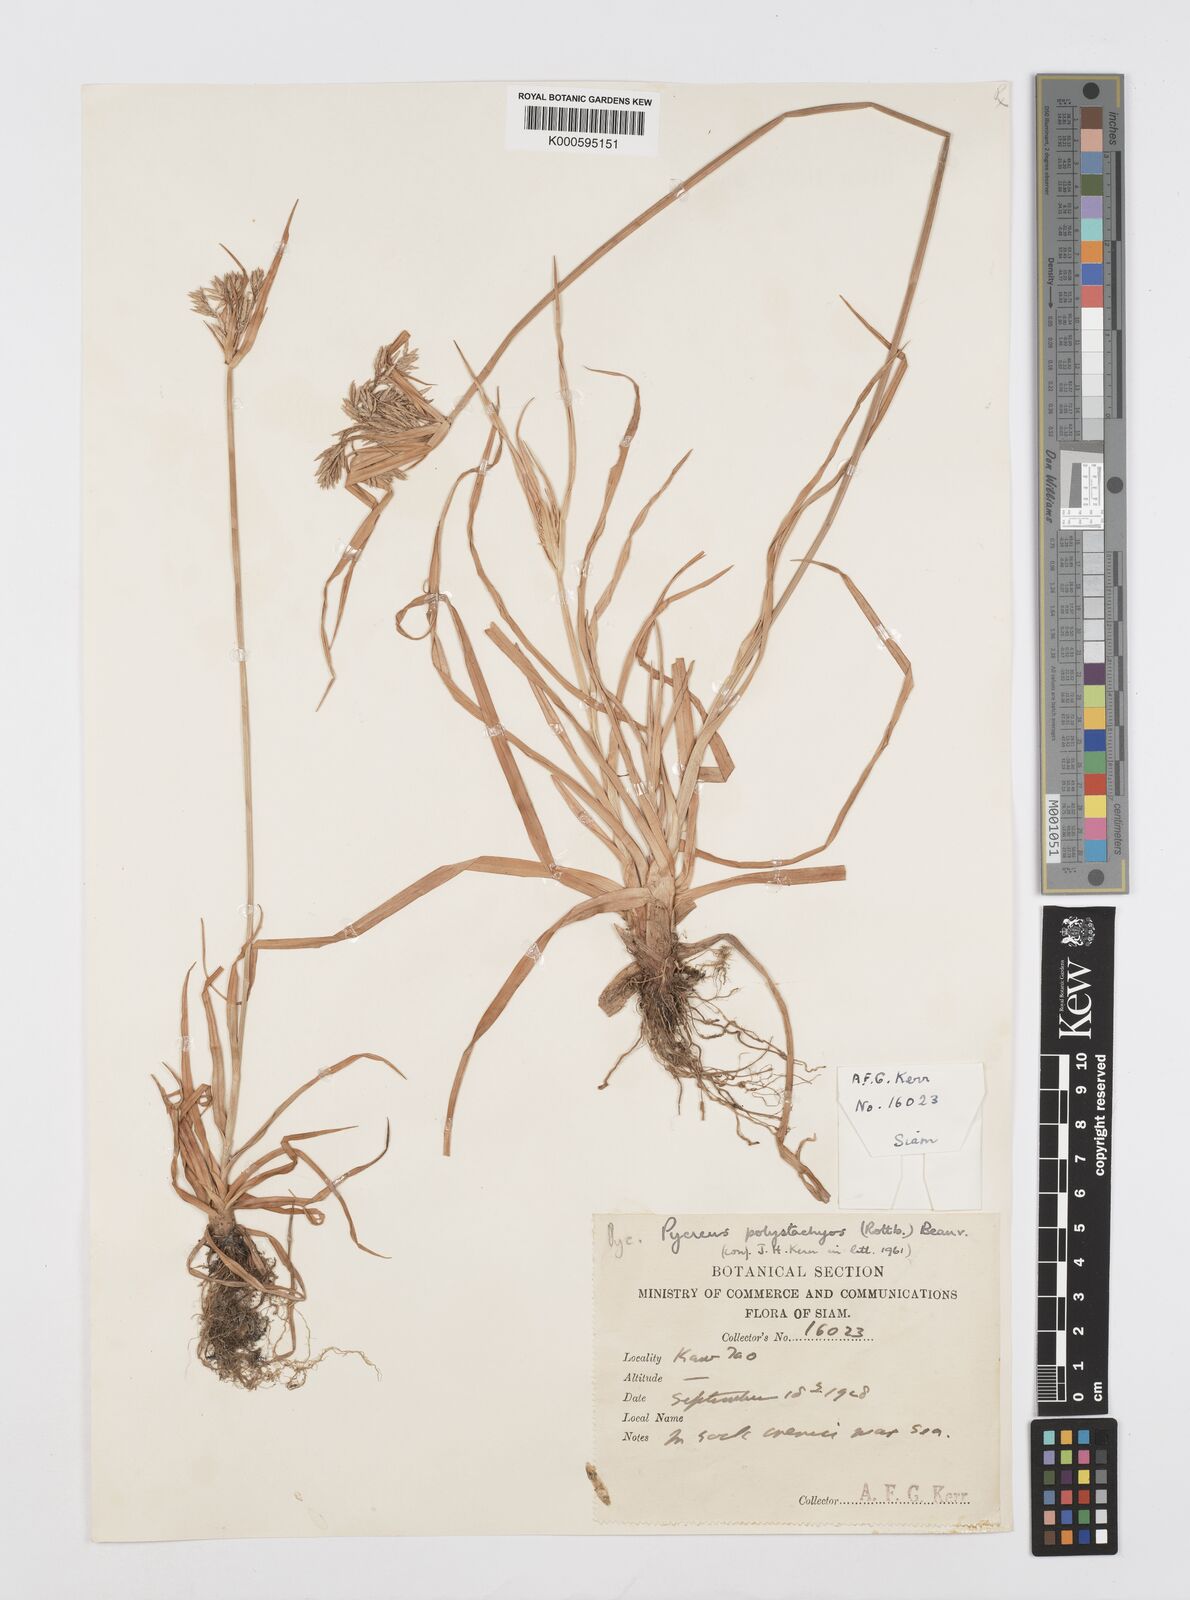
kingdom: Plantae
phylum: Tracheophyta
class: Liliopsida
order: Poales
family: Cyperaceae
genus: Cyperus
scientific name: Cyperus polystachyos
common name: Bunchy flat sedge
